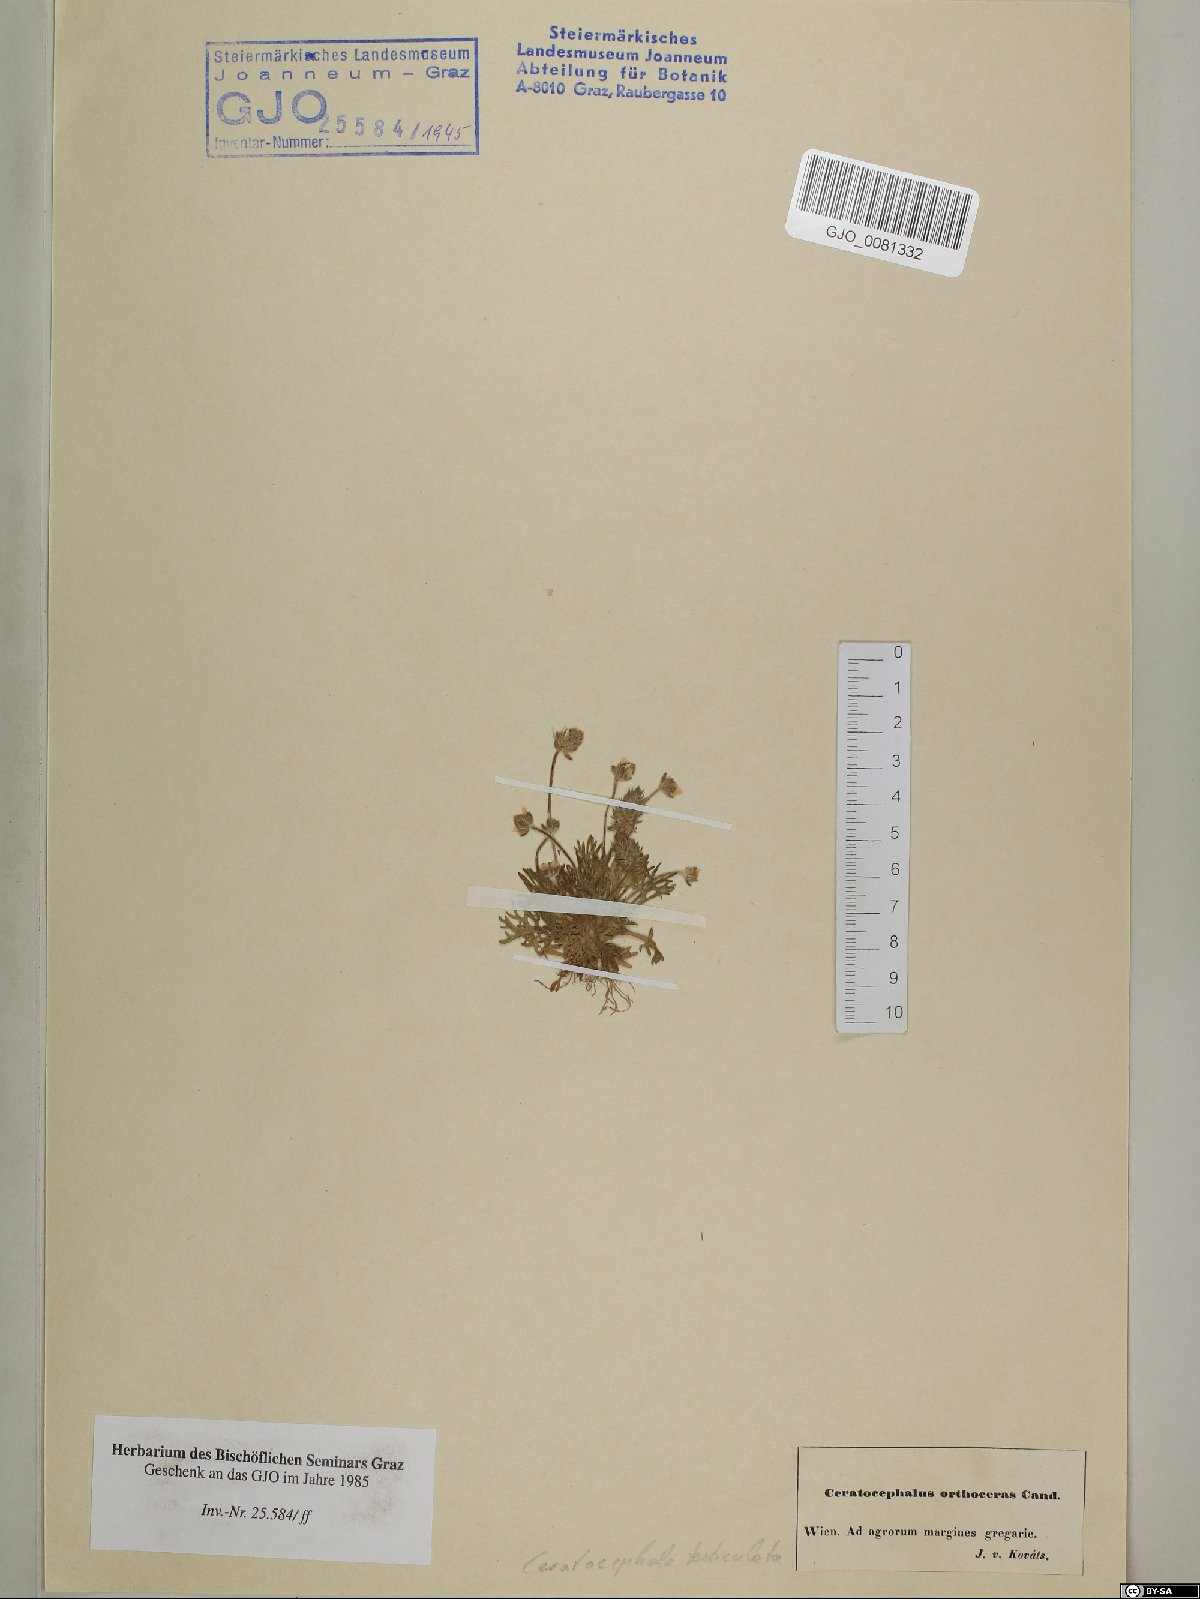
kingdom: Plantae
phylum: Tracheophyta
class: Magnoliopsida
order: Ranunculales
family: Ranunculaceae
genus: Ceratocephala
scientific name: Ceratocephala orthoceras
